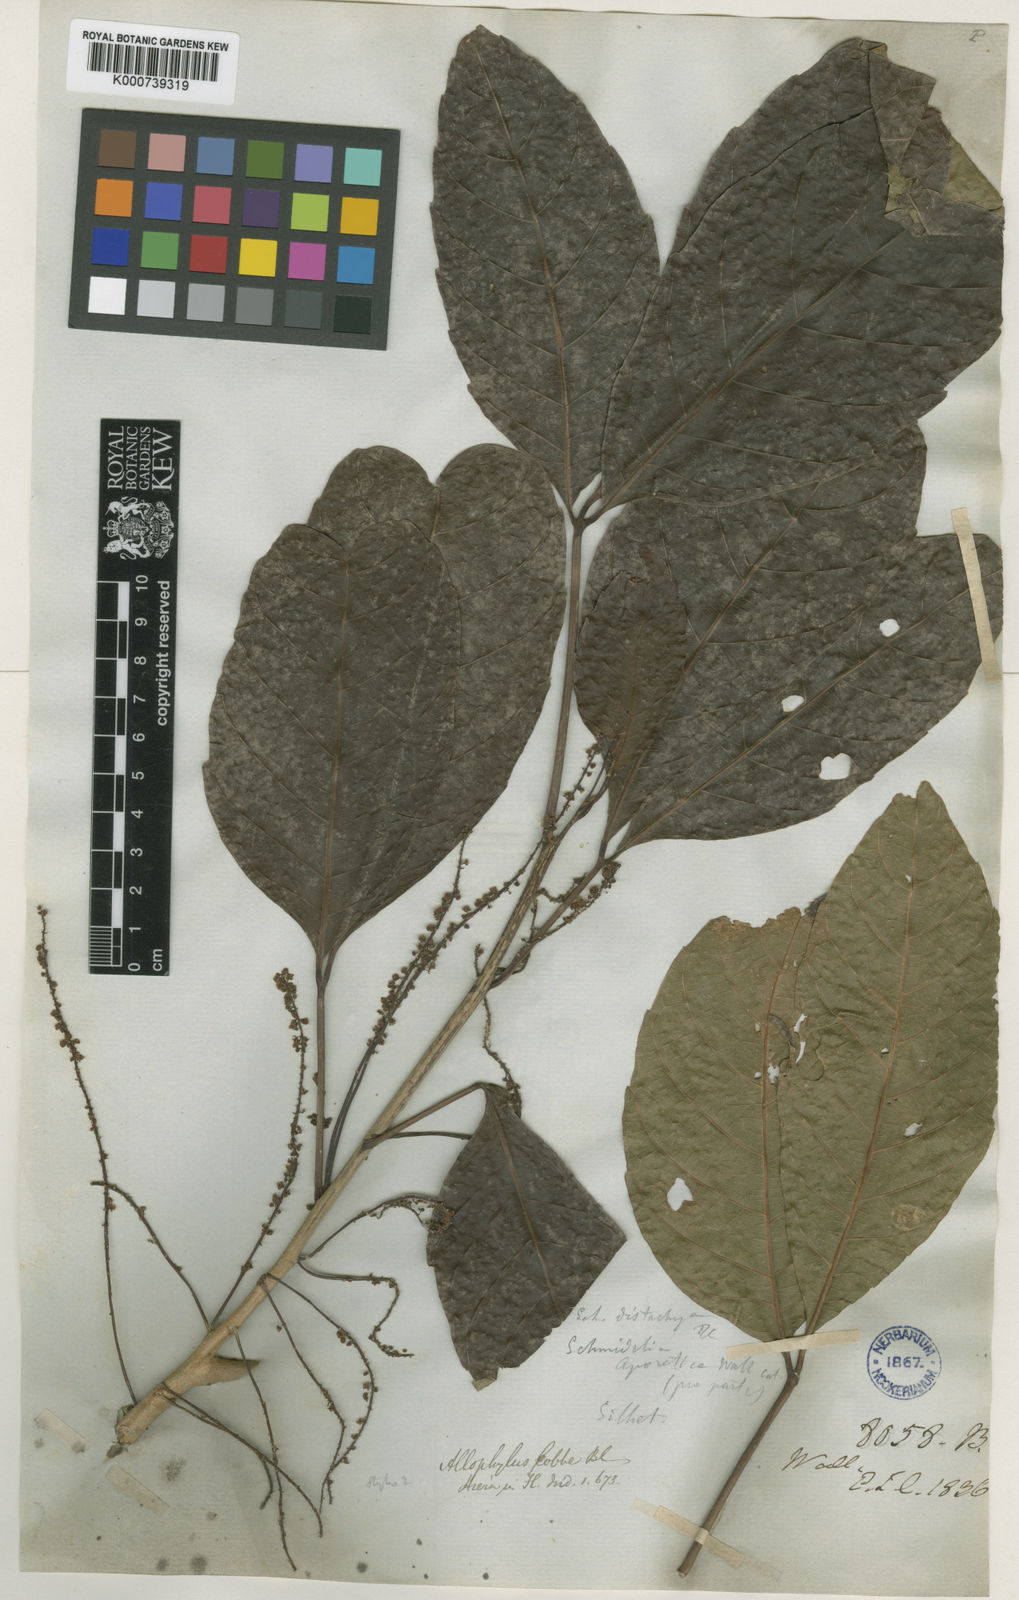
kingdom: Plantae
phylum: Tracheophyta
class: Magnoliopsida
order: Sapindales
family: Sapindaceae
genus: Allophylus
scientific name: Allophylus subfalcatus
